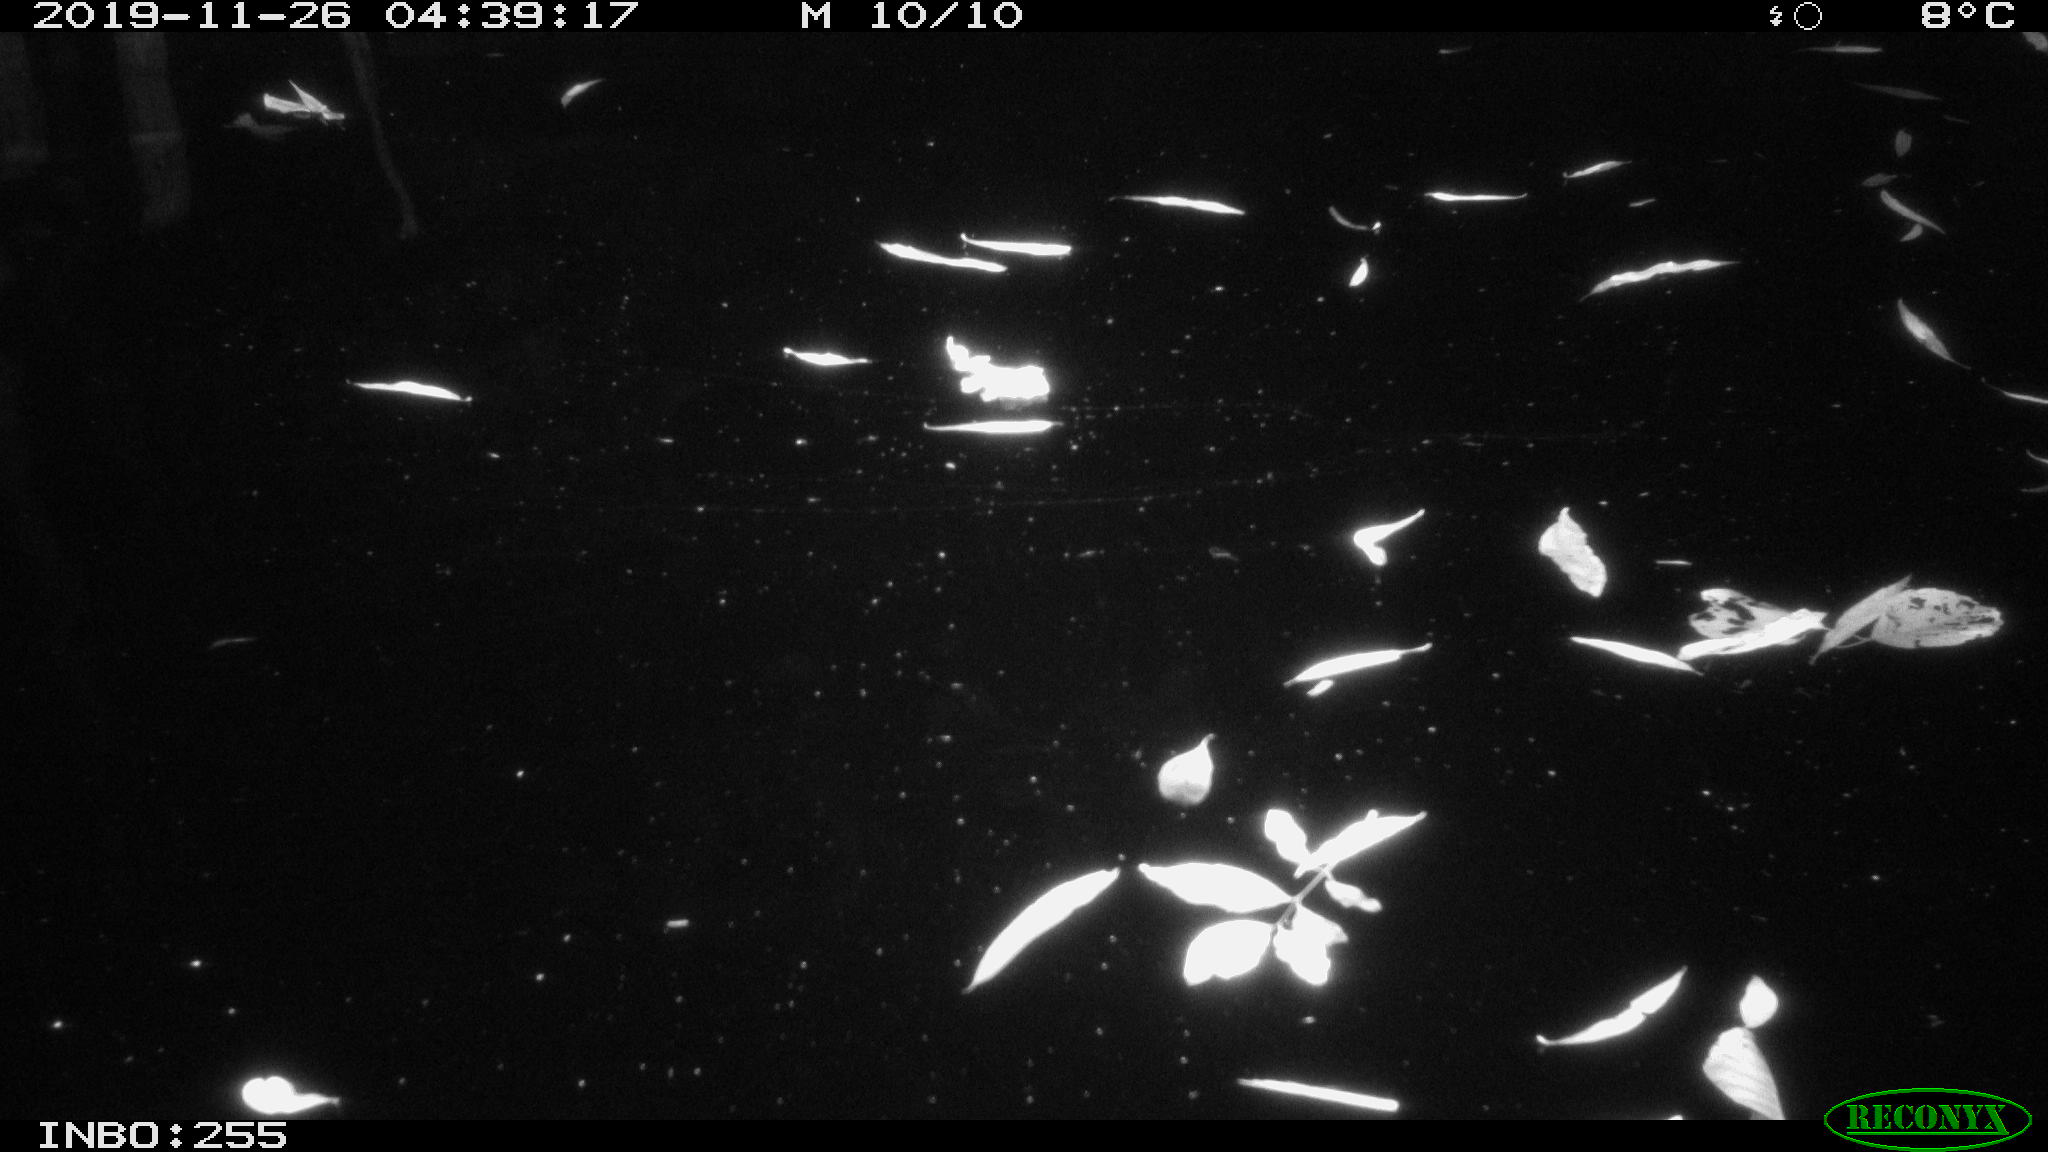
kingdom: Animalia
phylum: Chordata
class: Aves
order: Anseriformes
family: Anatidae
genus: Anas
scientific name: Anas platyrhynchos
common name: Mallard
